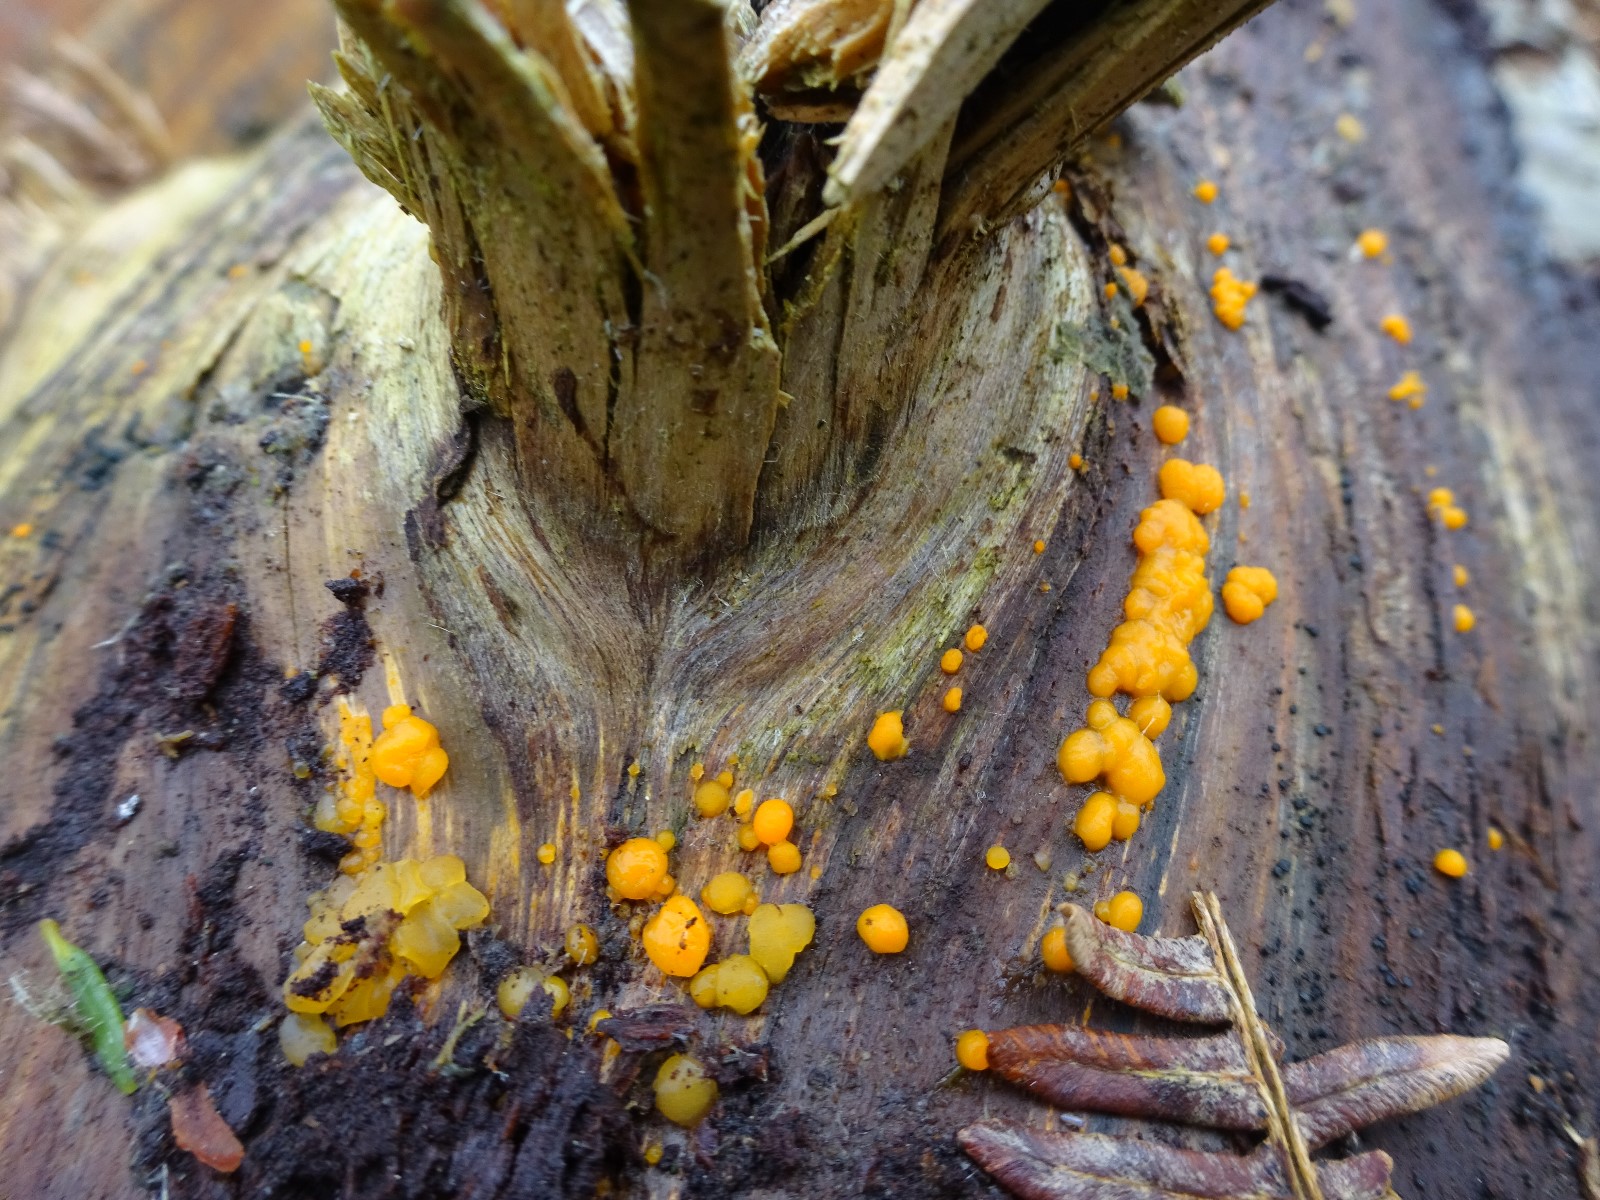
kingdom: Fungi
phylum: Basidiomycota
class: Dacrymycetes
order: Dacrymycetales
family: Dacrymycetaceae
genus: Dacrymyces
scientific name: Dacrymyces stillatus
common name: almindelig tåresvamp
